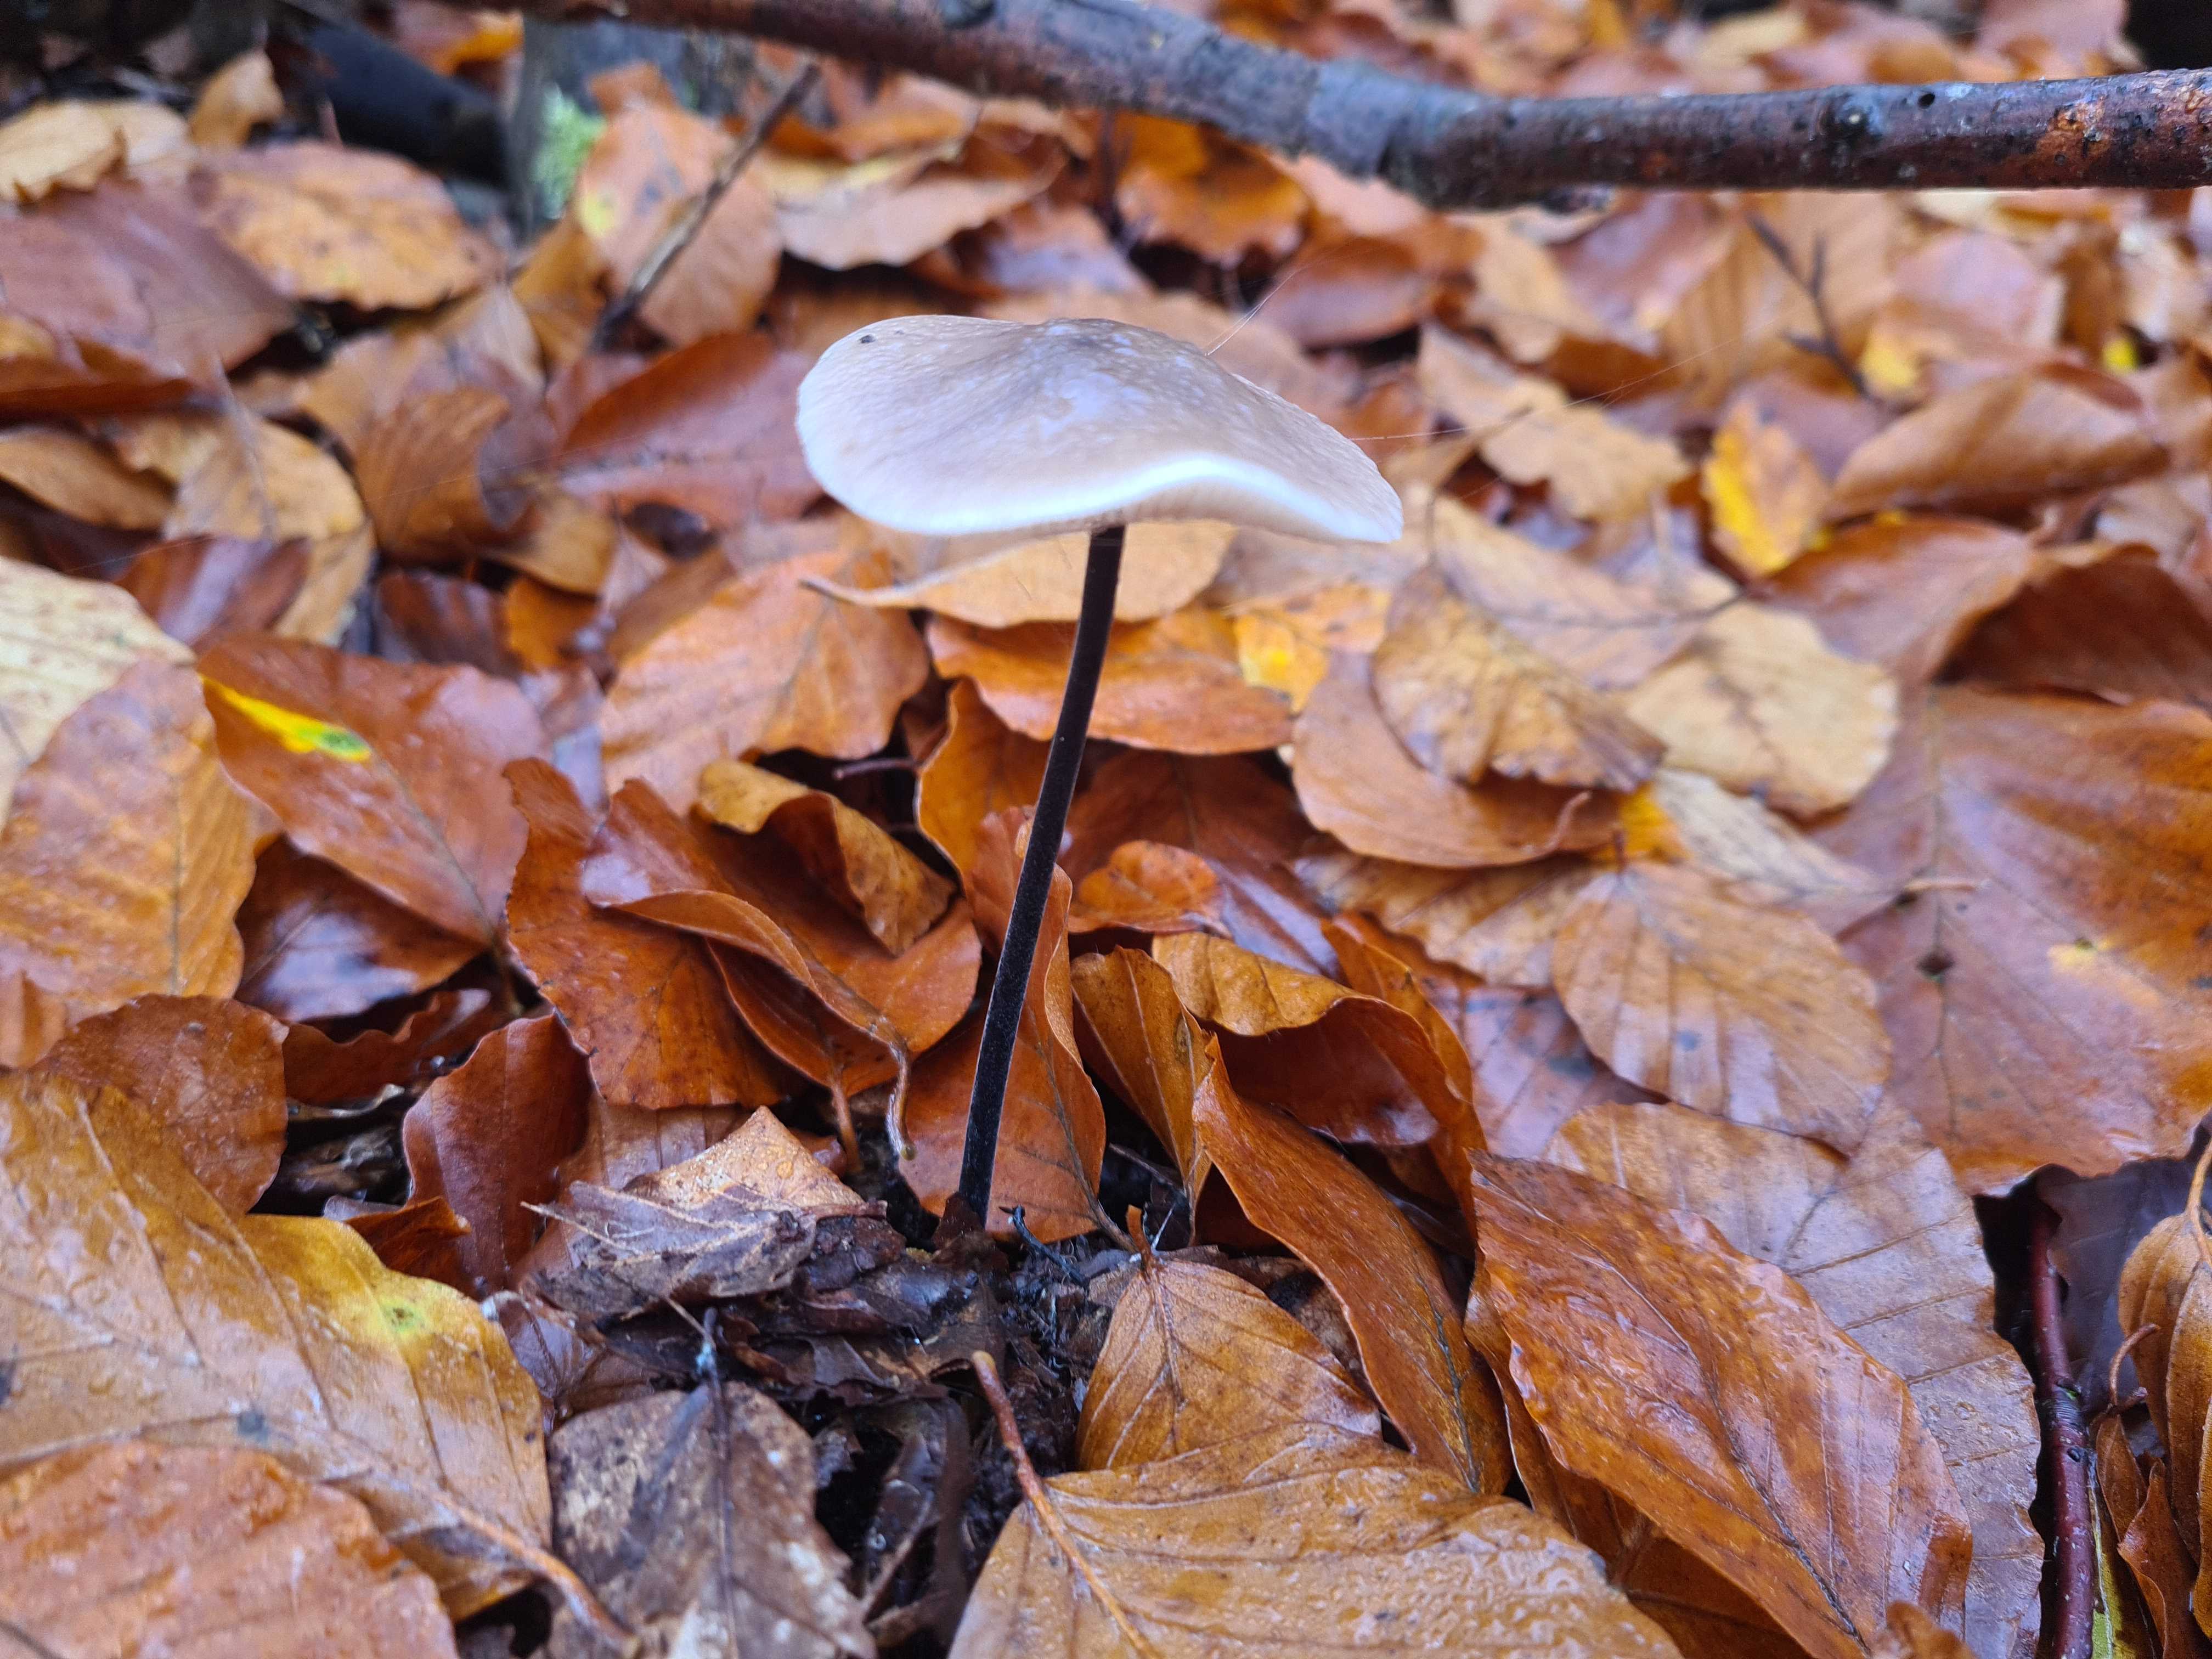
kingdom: Fungi
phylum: Basidiomycota
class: Agaricomycetes
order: Agaricales
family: Omphalotaceae
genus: Mycetinis
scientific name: Mycetinis alliaceus
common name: stor løghat
